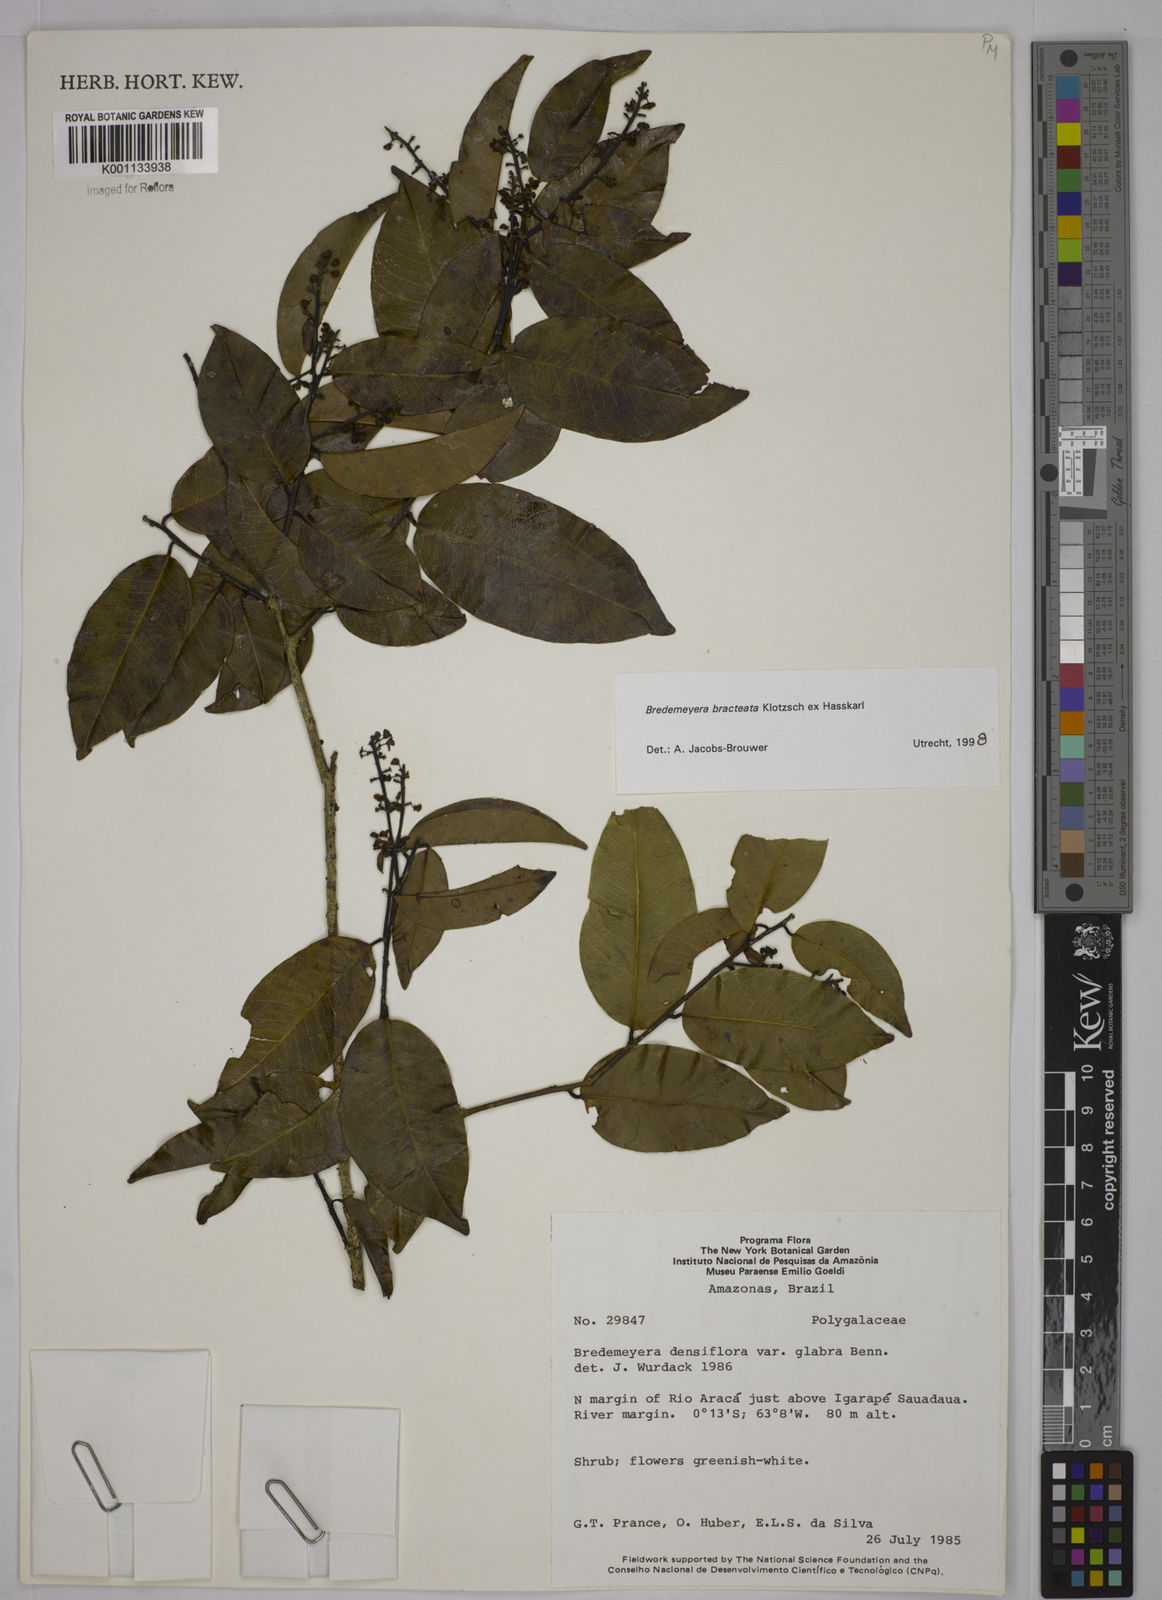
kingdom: Plantae
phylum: Tracheophyta
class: Magnoliopsida
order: Fabales
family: Polygalaceae
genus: Bredemeyera
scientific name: Bredemeyera bracteata
